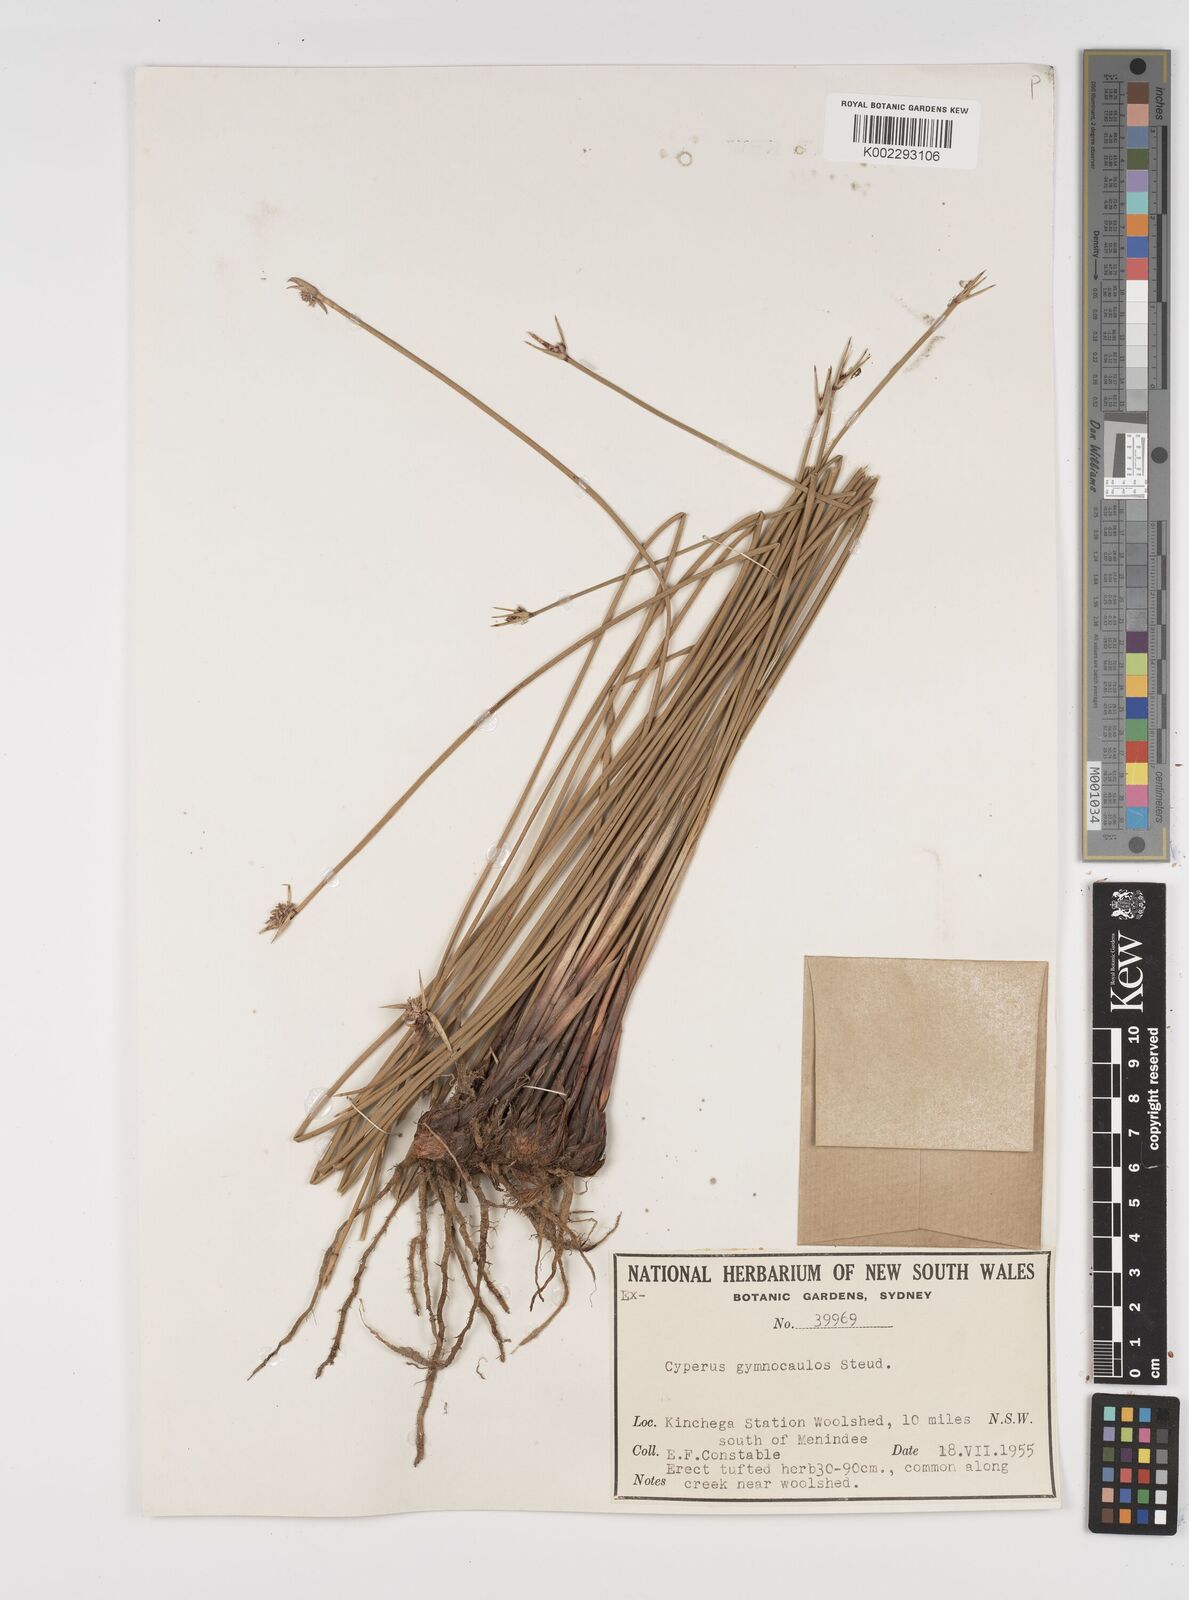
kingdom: Plantae
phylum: Tracheophyta
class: Liliopsida
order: Poales
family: Cyperaceae
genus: Cyperus
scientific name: Cyperus gymnocaulos
